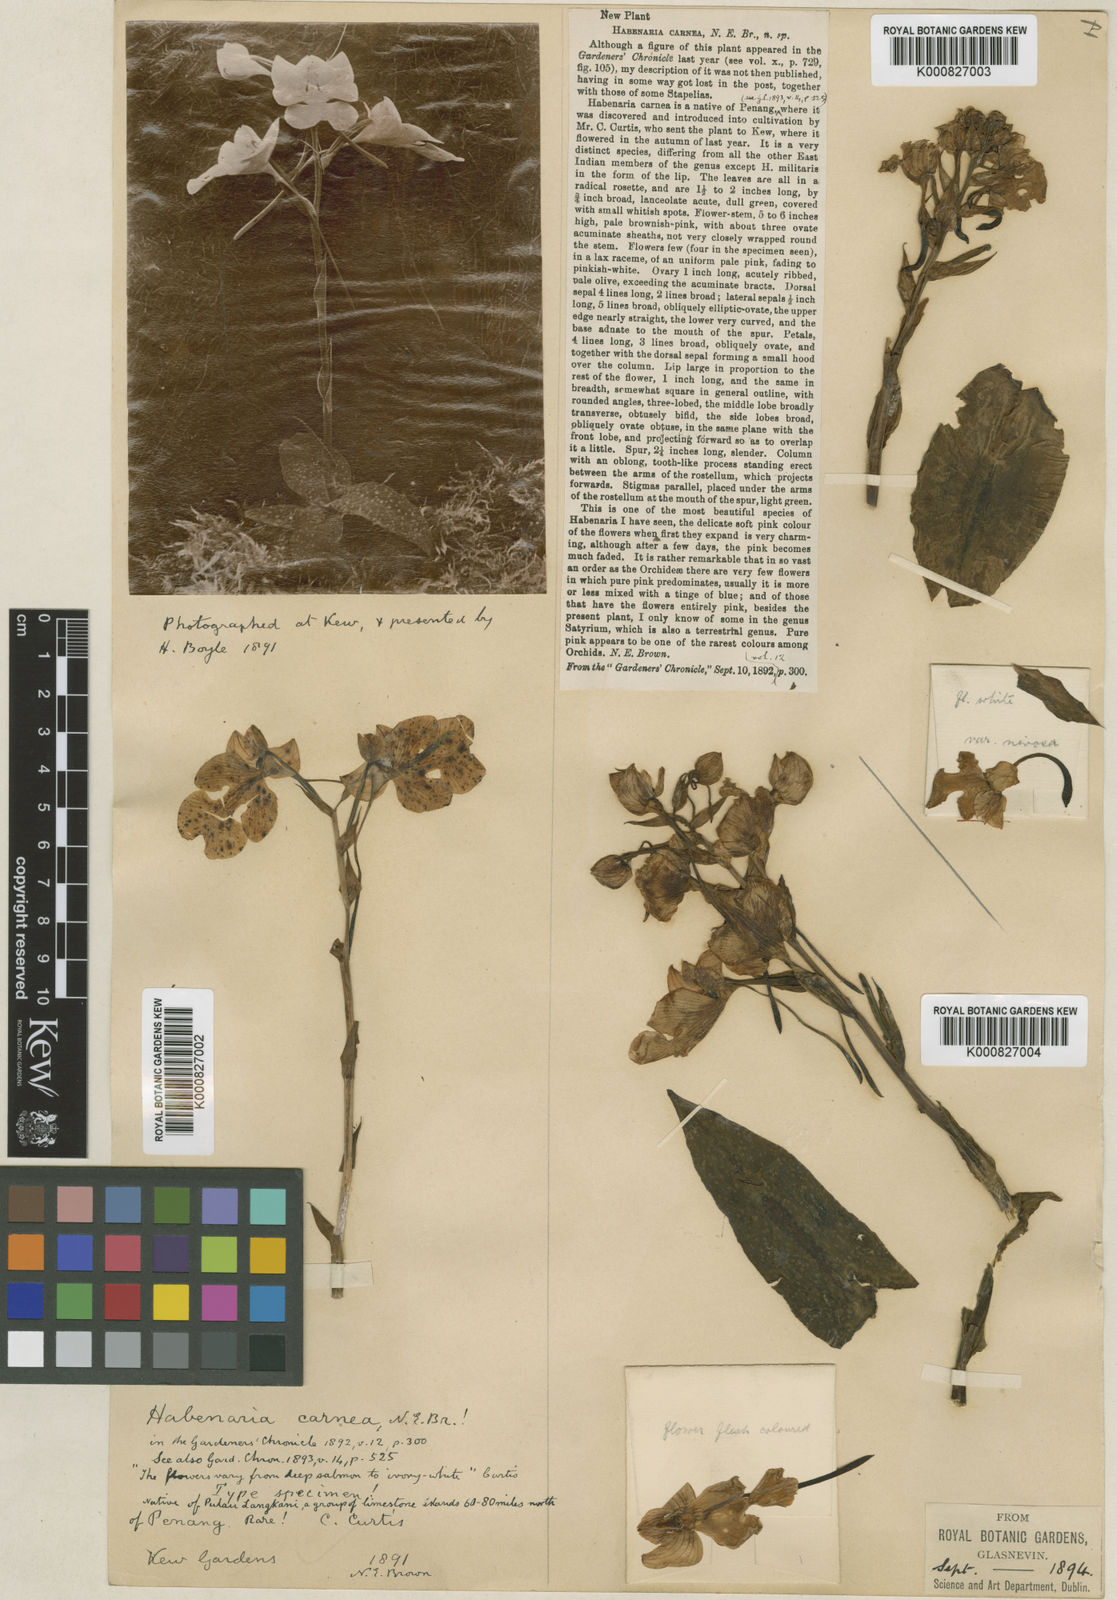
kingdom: Plantae
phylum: Tracheophyta
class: Liliopsida
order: Asparagales
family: Orchidaceae
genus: Habenaria
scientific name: Habenaria
